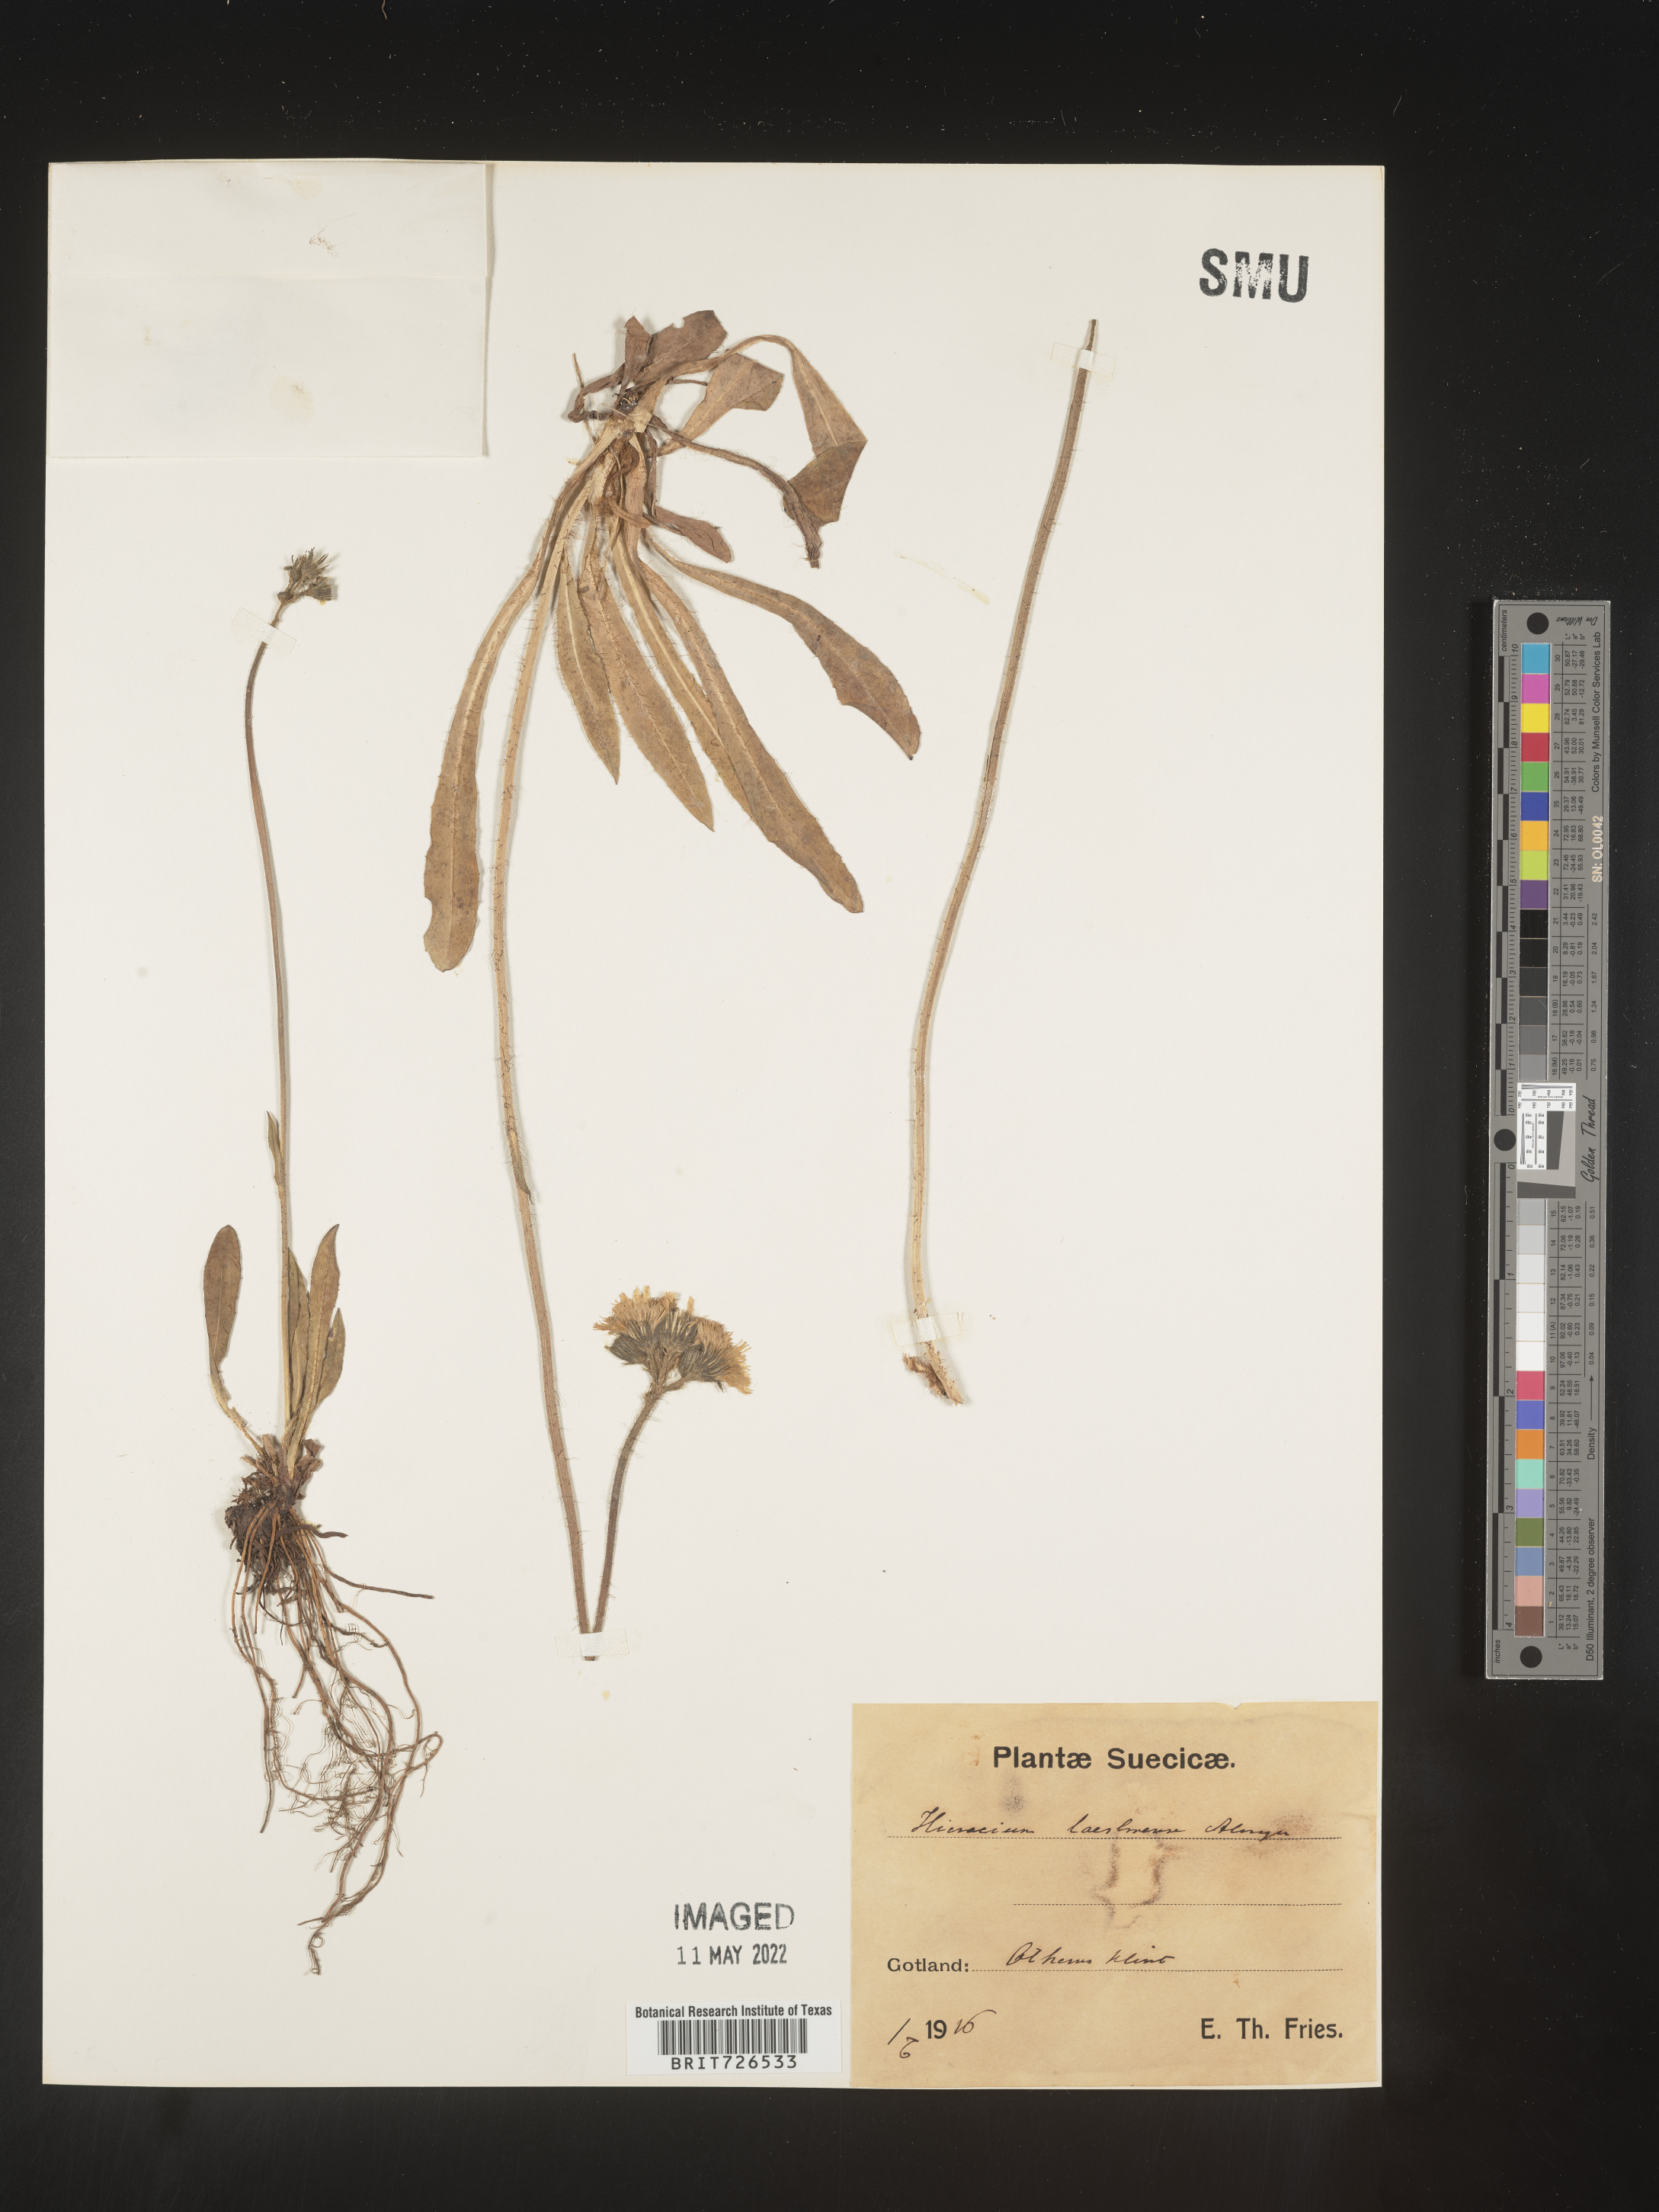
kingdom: Plantae
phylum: Tracheophyta
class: Magnoliopsida
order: Asterales
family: Asteraceae
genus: Hieracium
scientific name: Hieracium
